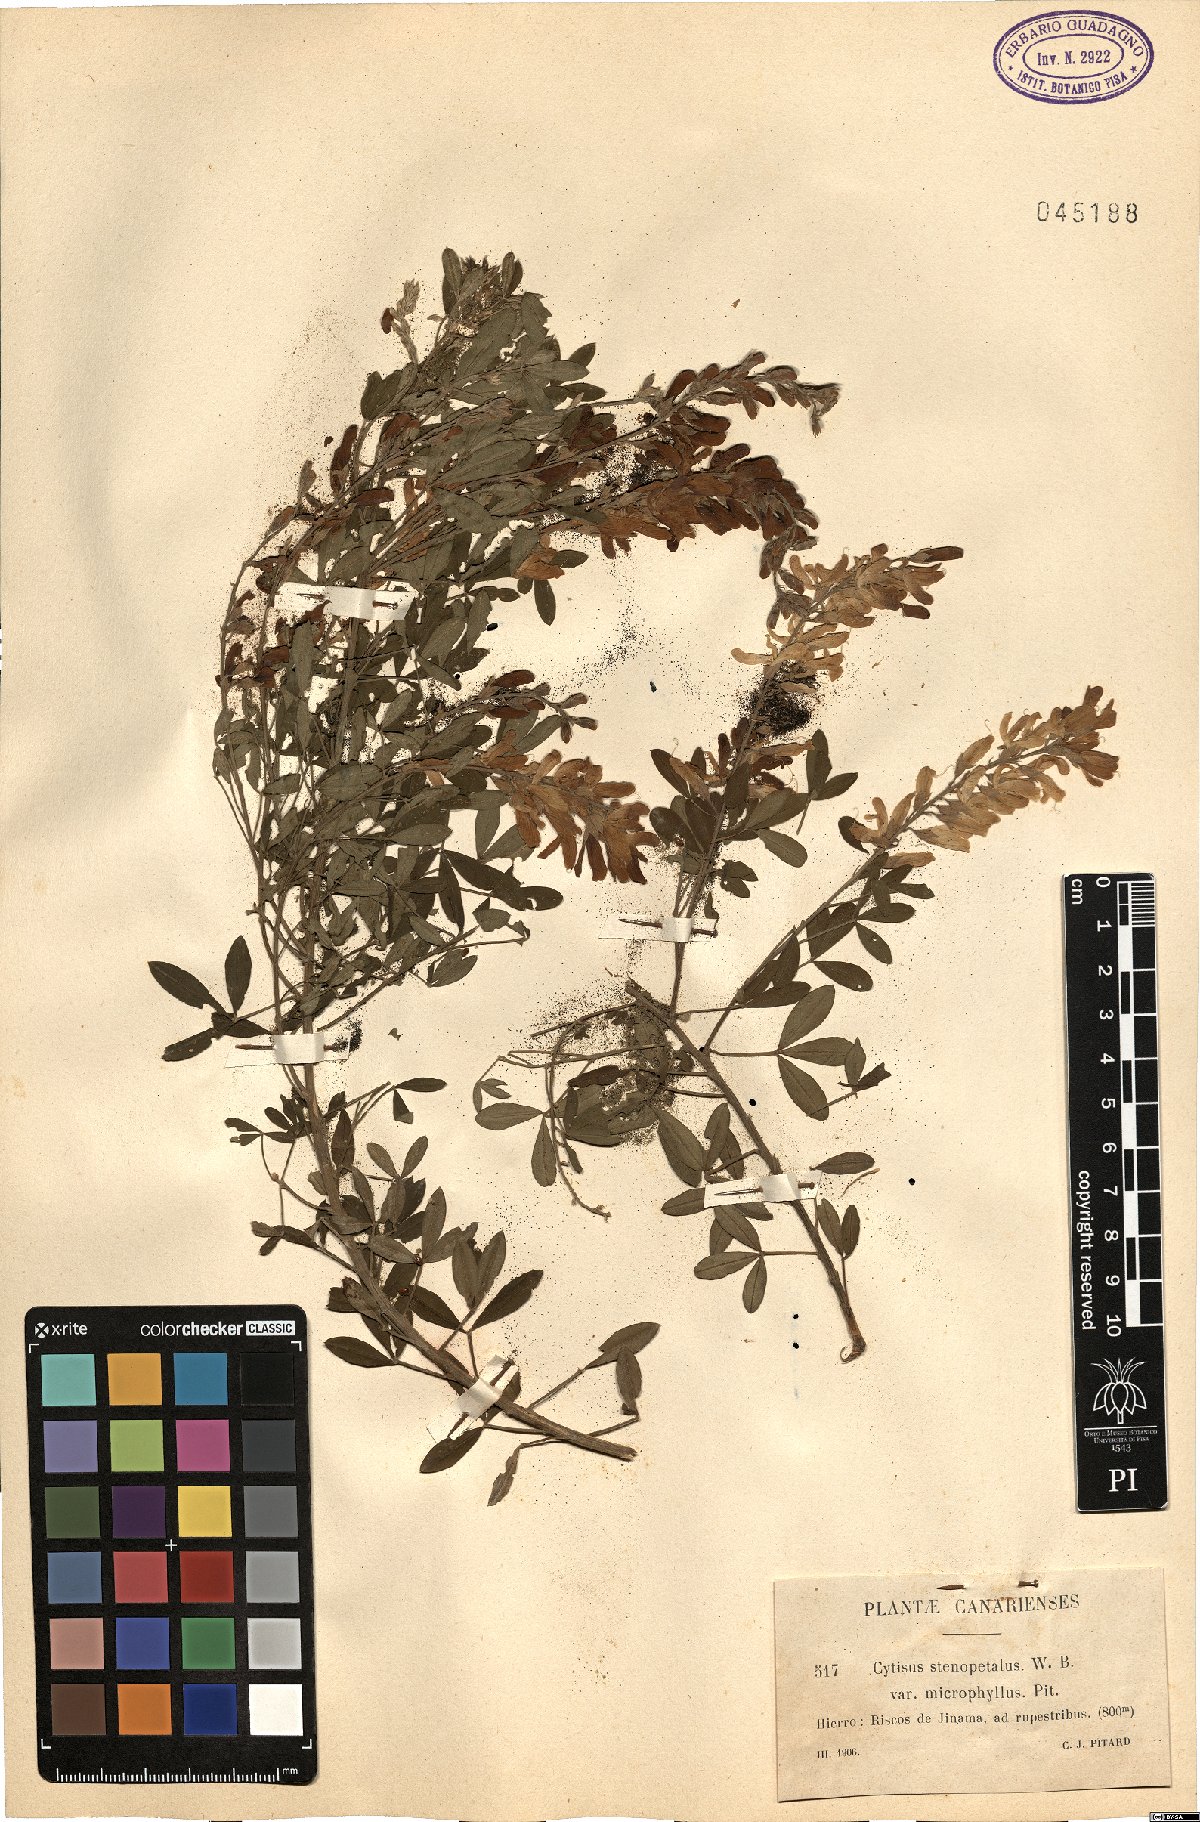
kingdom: Plantae
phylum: Tracheophyta
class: Magnoliopsida
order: Fabales
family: Fabaceae
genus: Cytisus
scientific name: Cytisus
